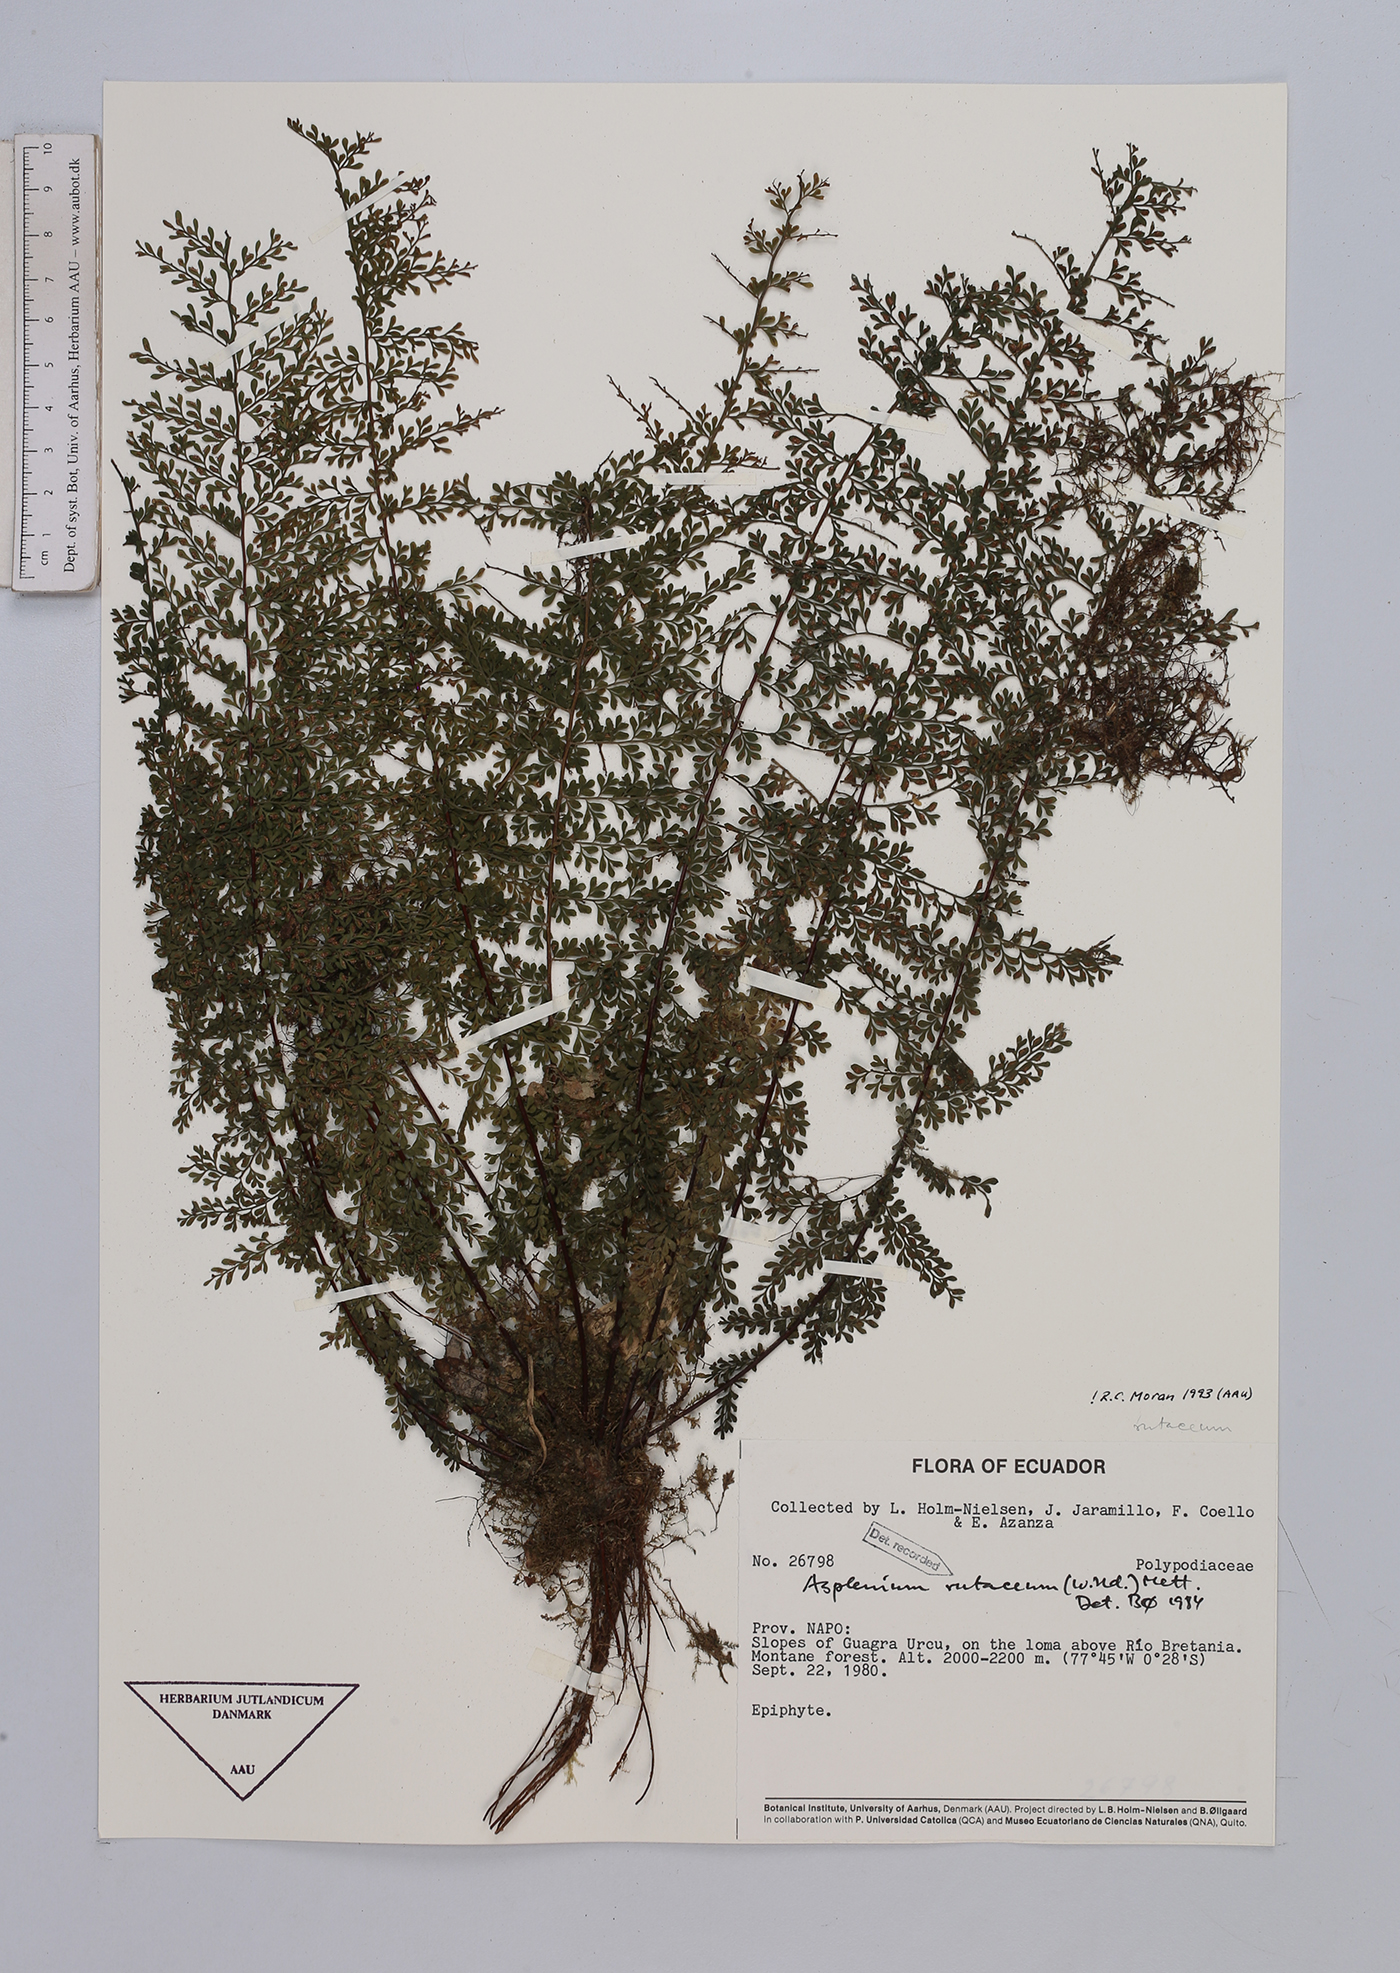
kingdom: Plantae
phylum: Tracheophyta
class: Polypodiopsida
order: Polypodiales
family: Aspleniaceae
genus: Asplenium
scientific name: Asplenium rutaceum
